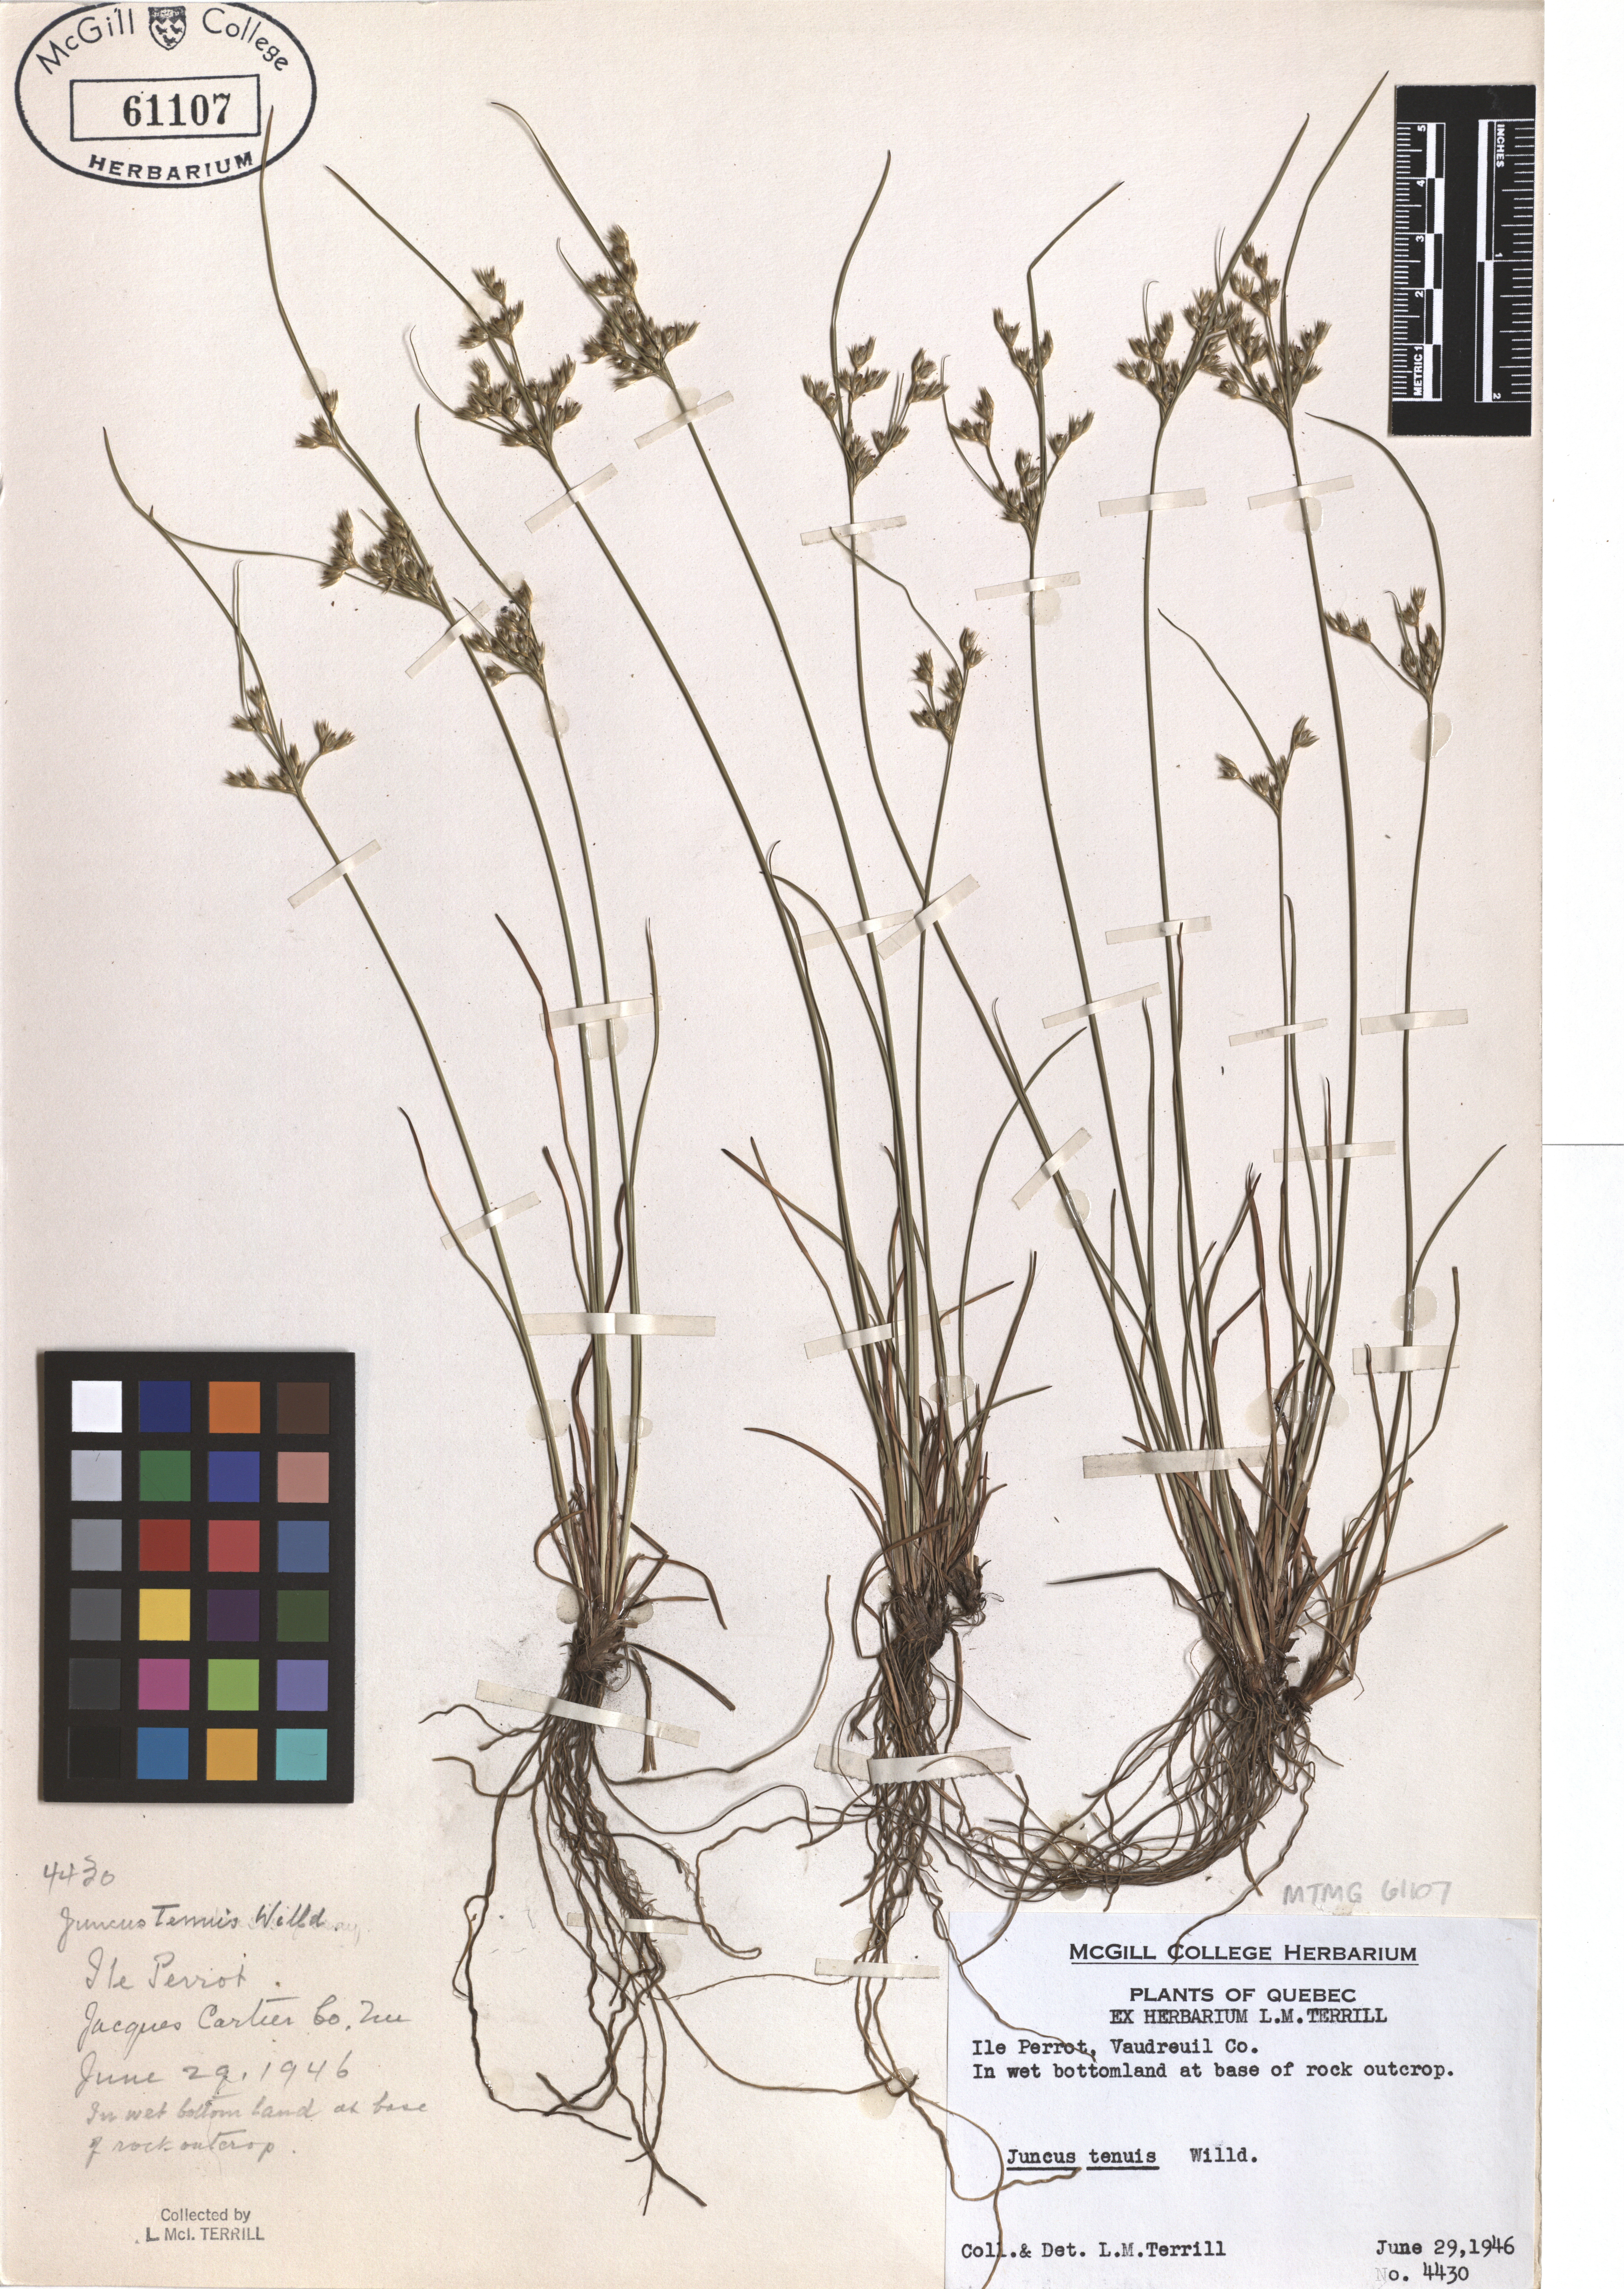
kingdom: Plantae
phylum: Tracheophyta
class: Liliopsida
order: Poales
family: Juncaceae
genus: Juncus
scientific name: Juncus tenuis
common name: Slender rush
